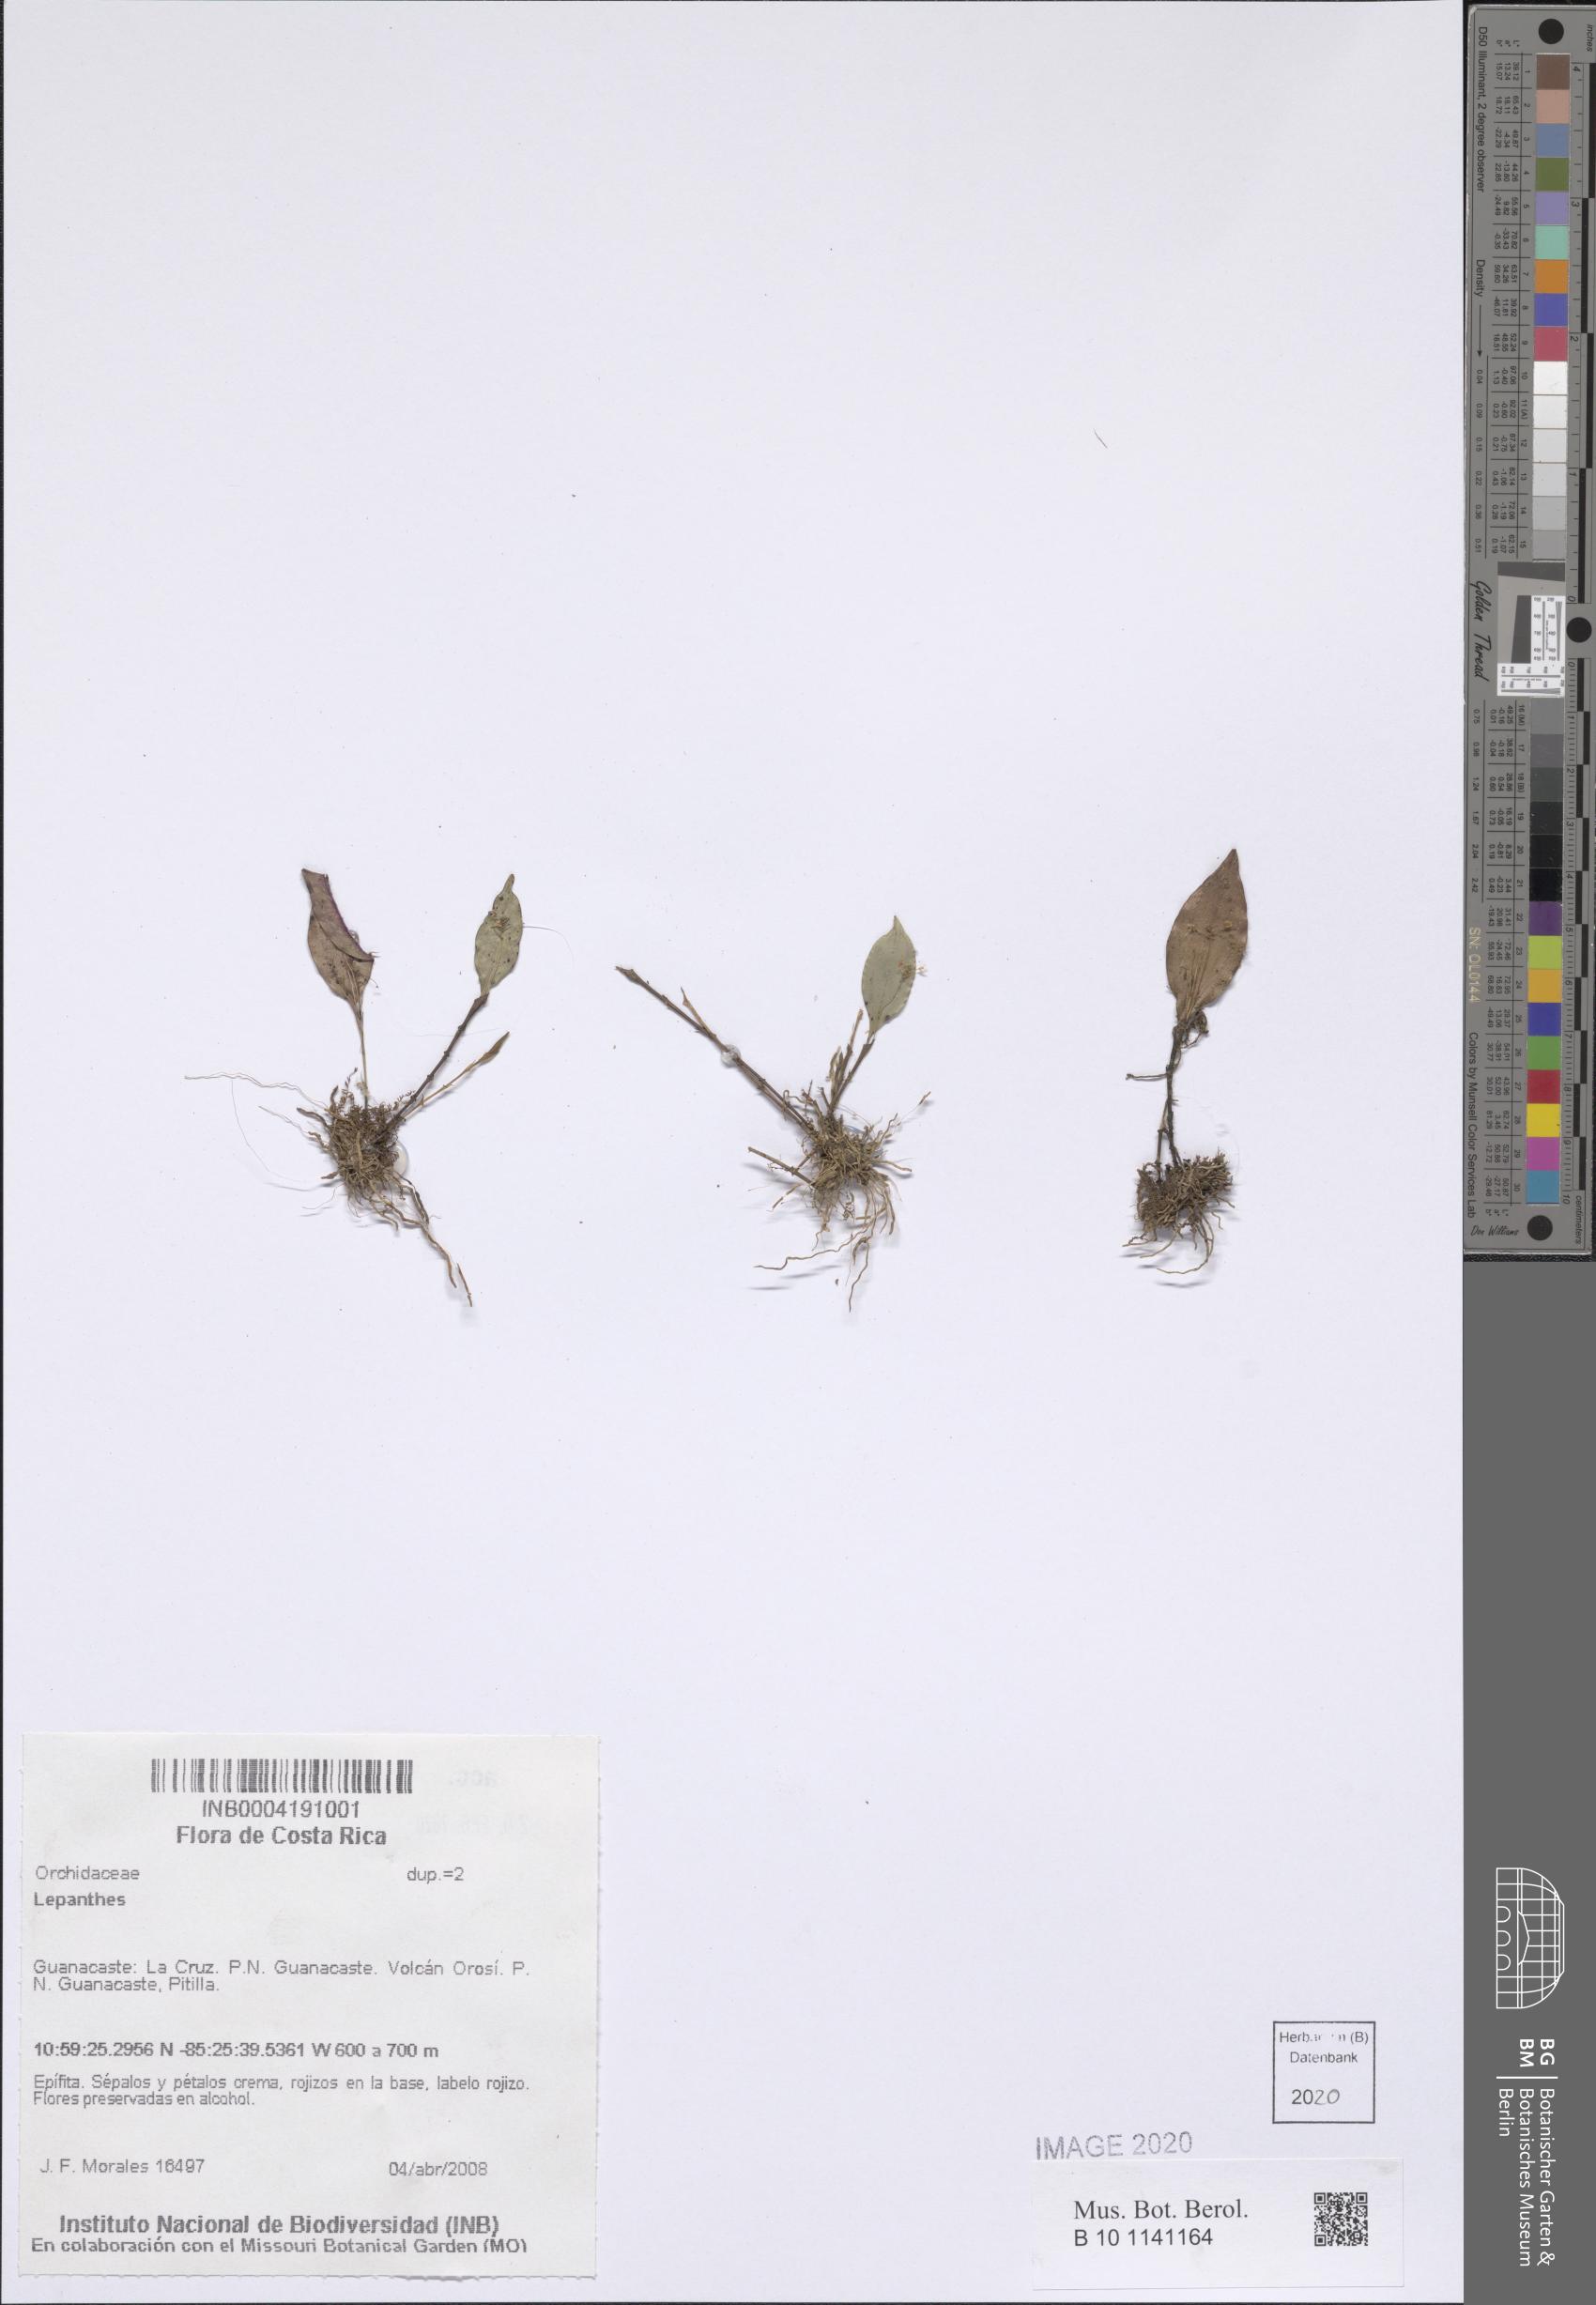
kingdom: Plantae
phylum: Tracheophyta
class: Liliopsida
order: Asparagales
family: Orchidaceae
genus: Lepanthes
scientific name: Lepanthes
